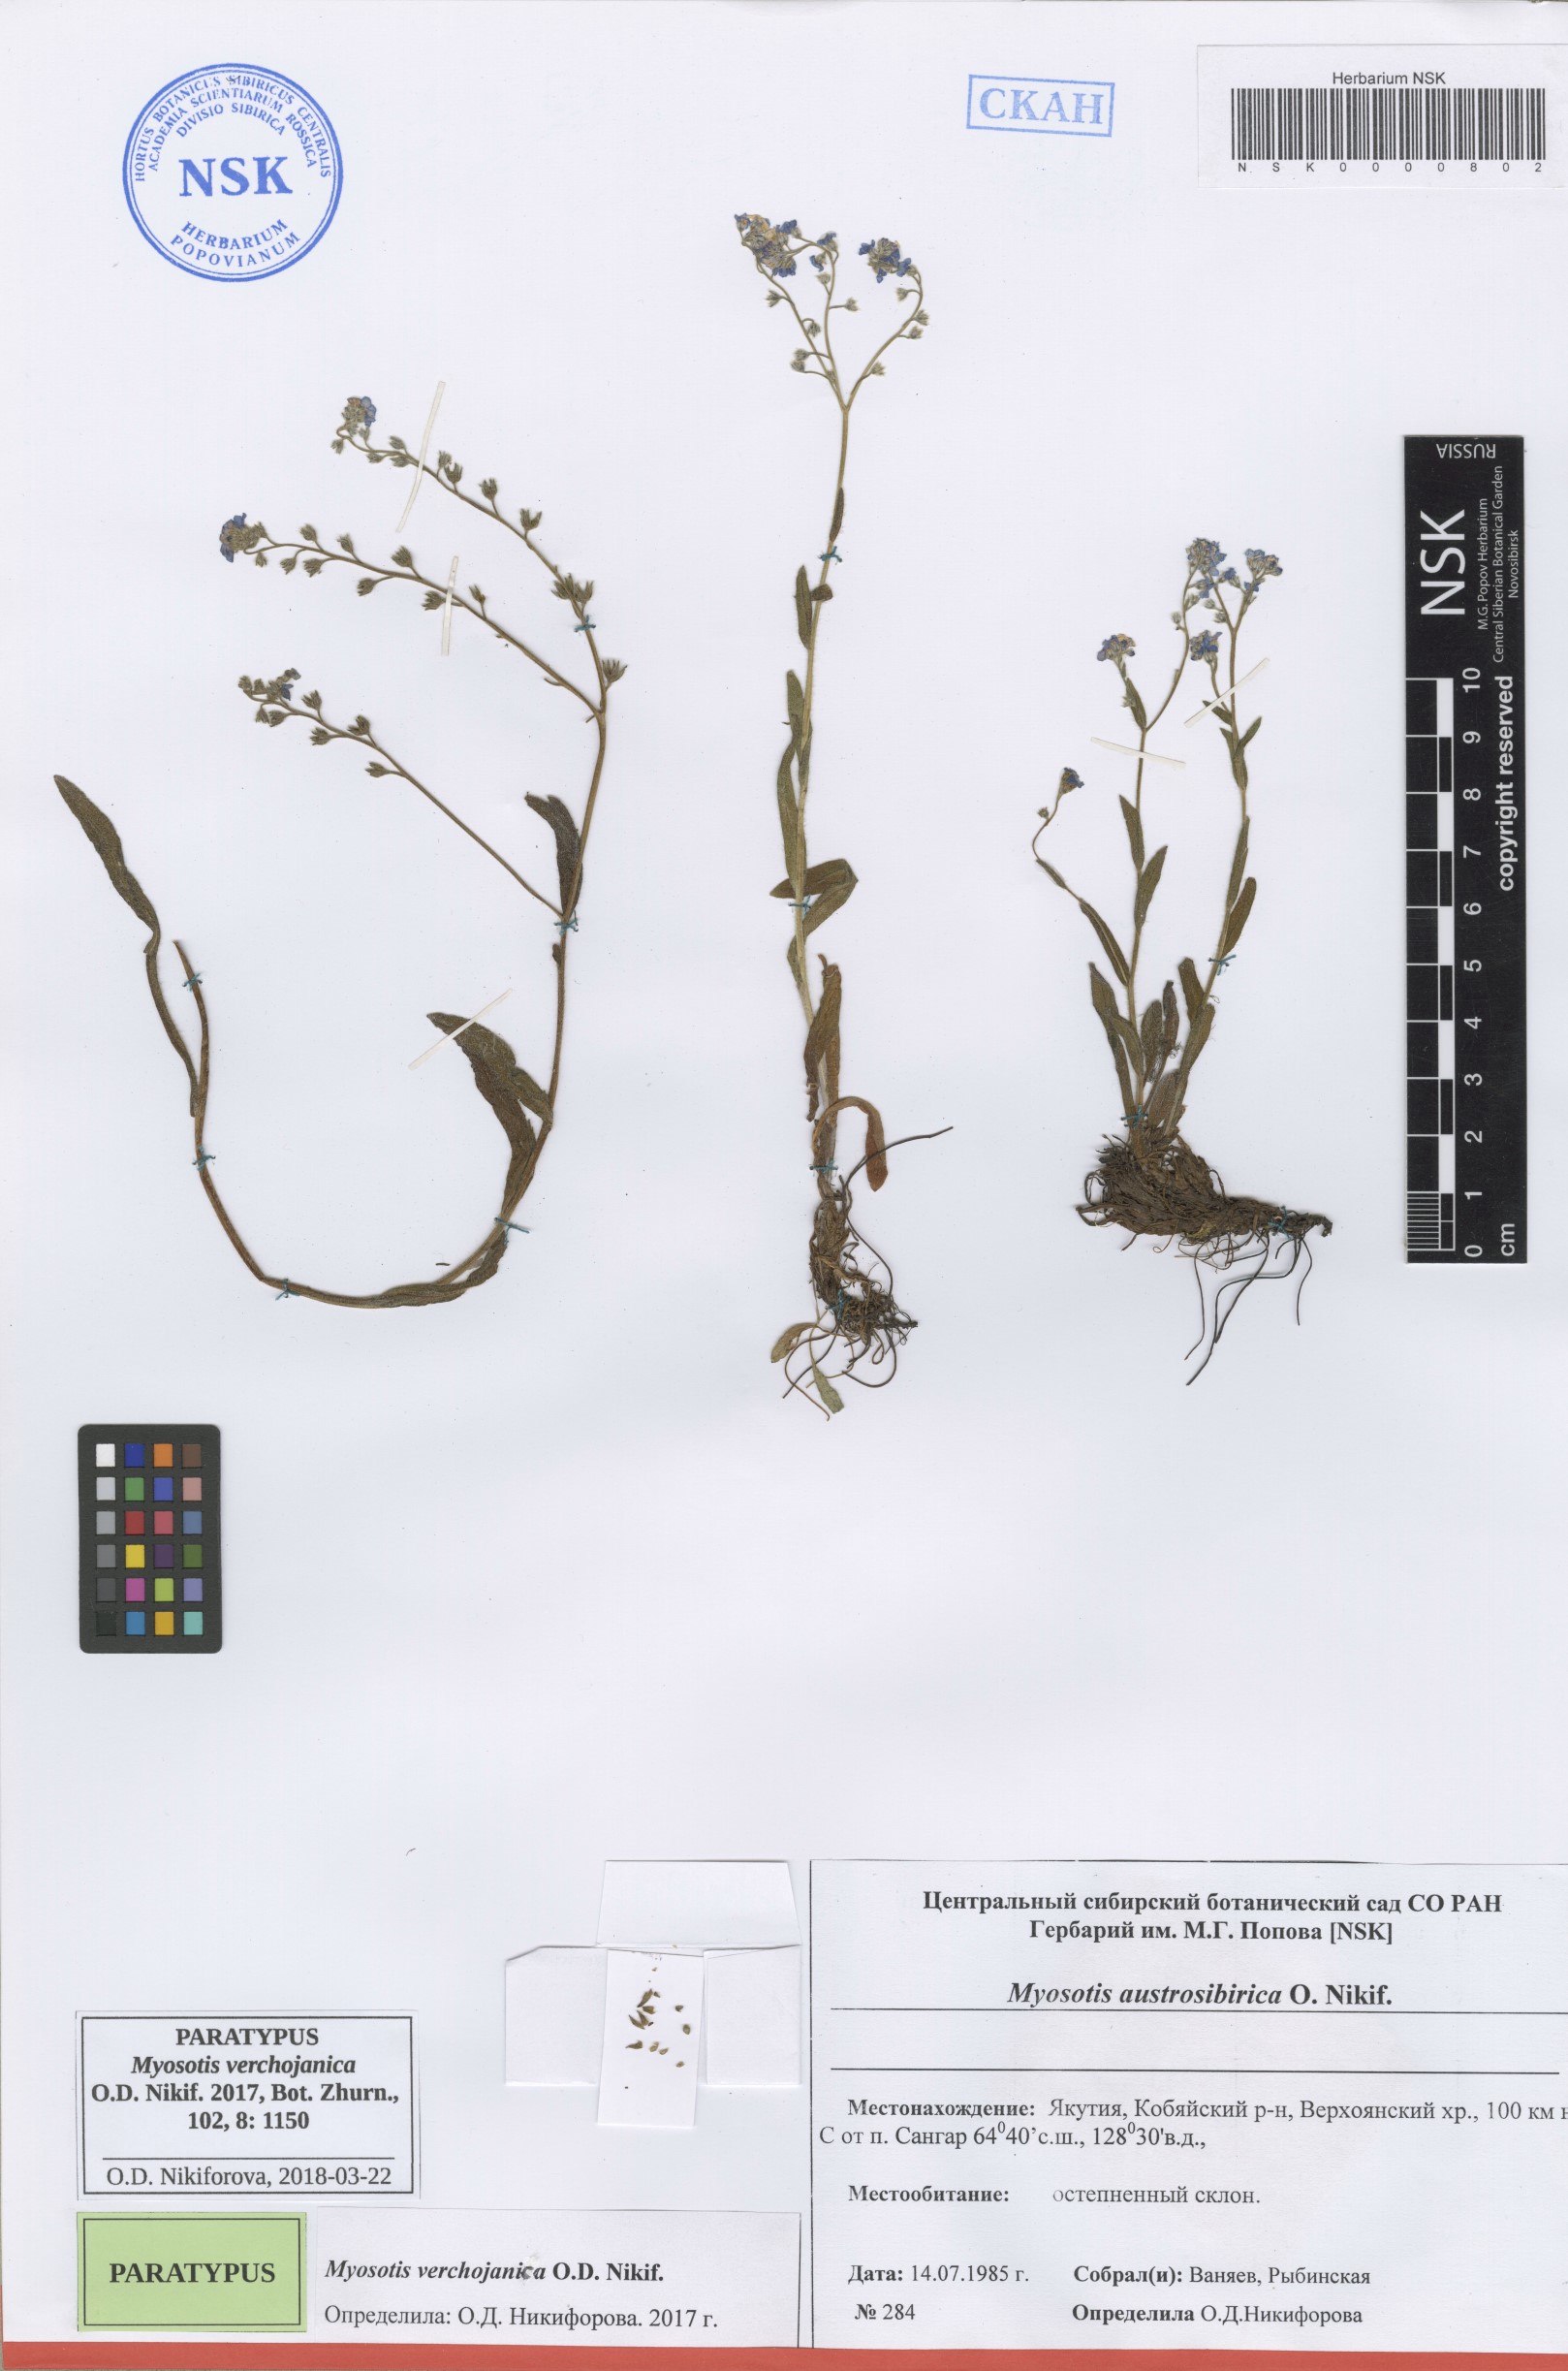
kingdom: Plantae
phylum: Tracheophyta
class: Magnoliopsida
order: Boraginales
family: Boraginaceae
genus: Myosotis
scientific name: Myosotis
